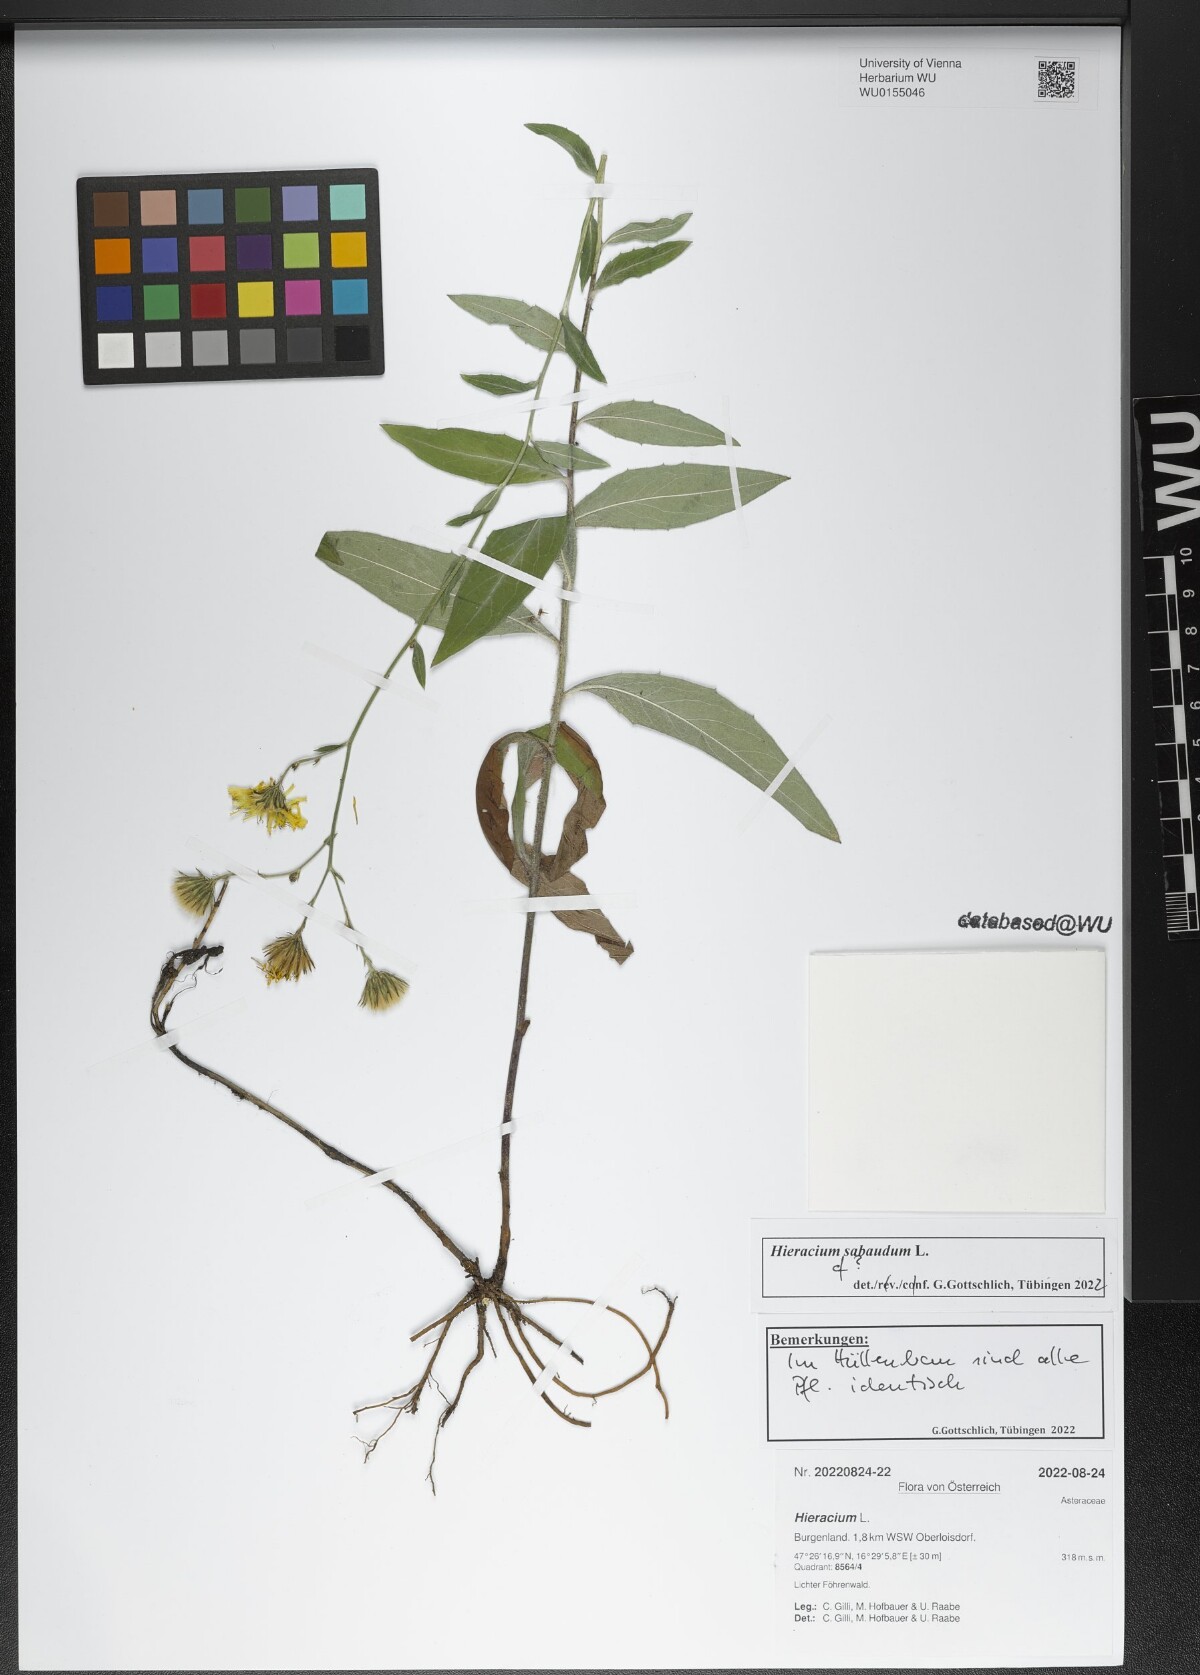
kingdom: Plantae
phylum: Tracheophyta
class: Magnoliopsida
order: Asterales
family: Asteraceae
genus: Hieracium
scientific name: Hieracium sabaudum
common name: New england hawkweed
